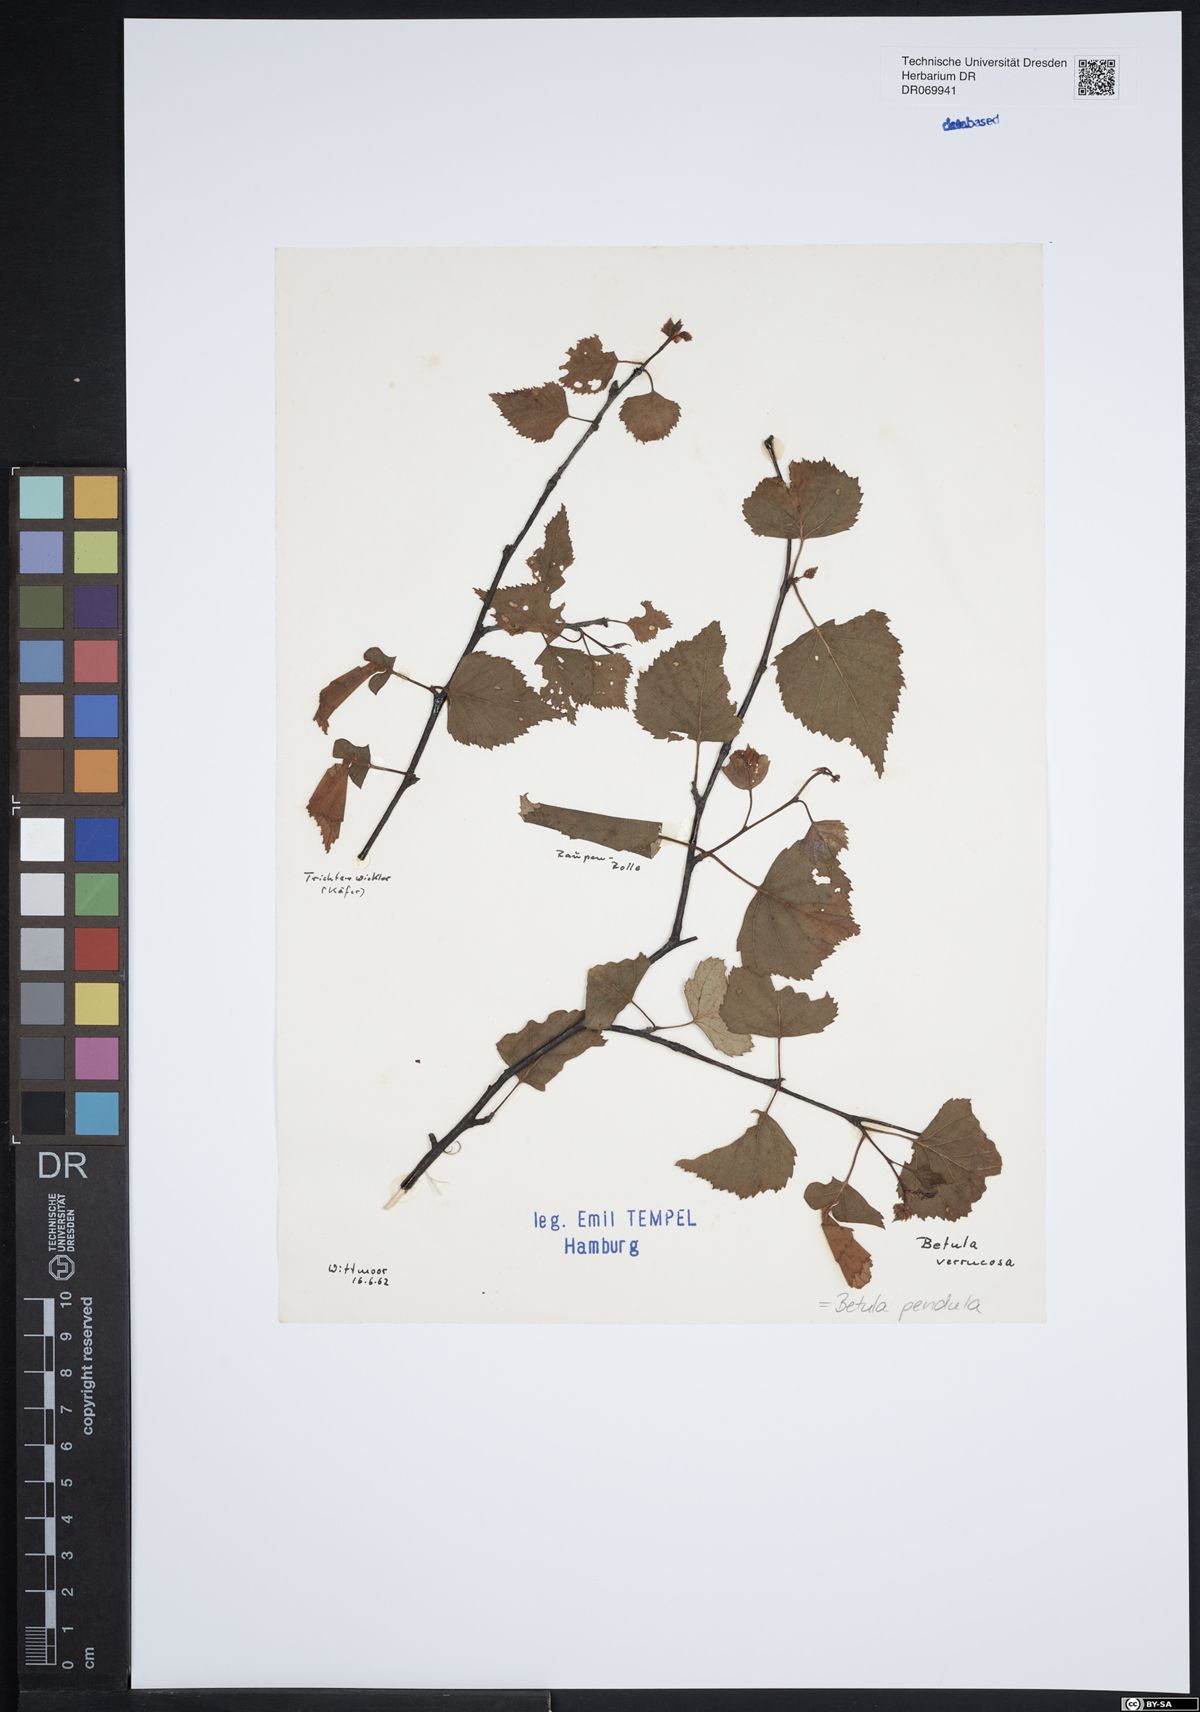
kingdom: Plantae
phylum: Tracheophyta
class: Magnoliopsida
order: Fagales
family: Betulaceae
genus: Betula
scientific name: Betula pendula
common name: Silver birch
